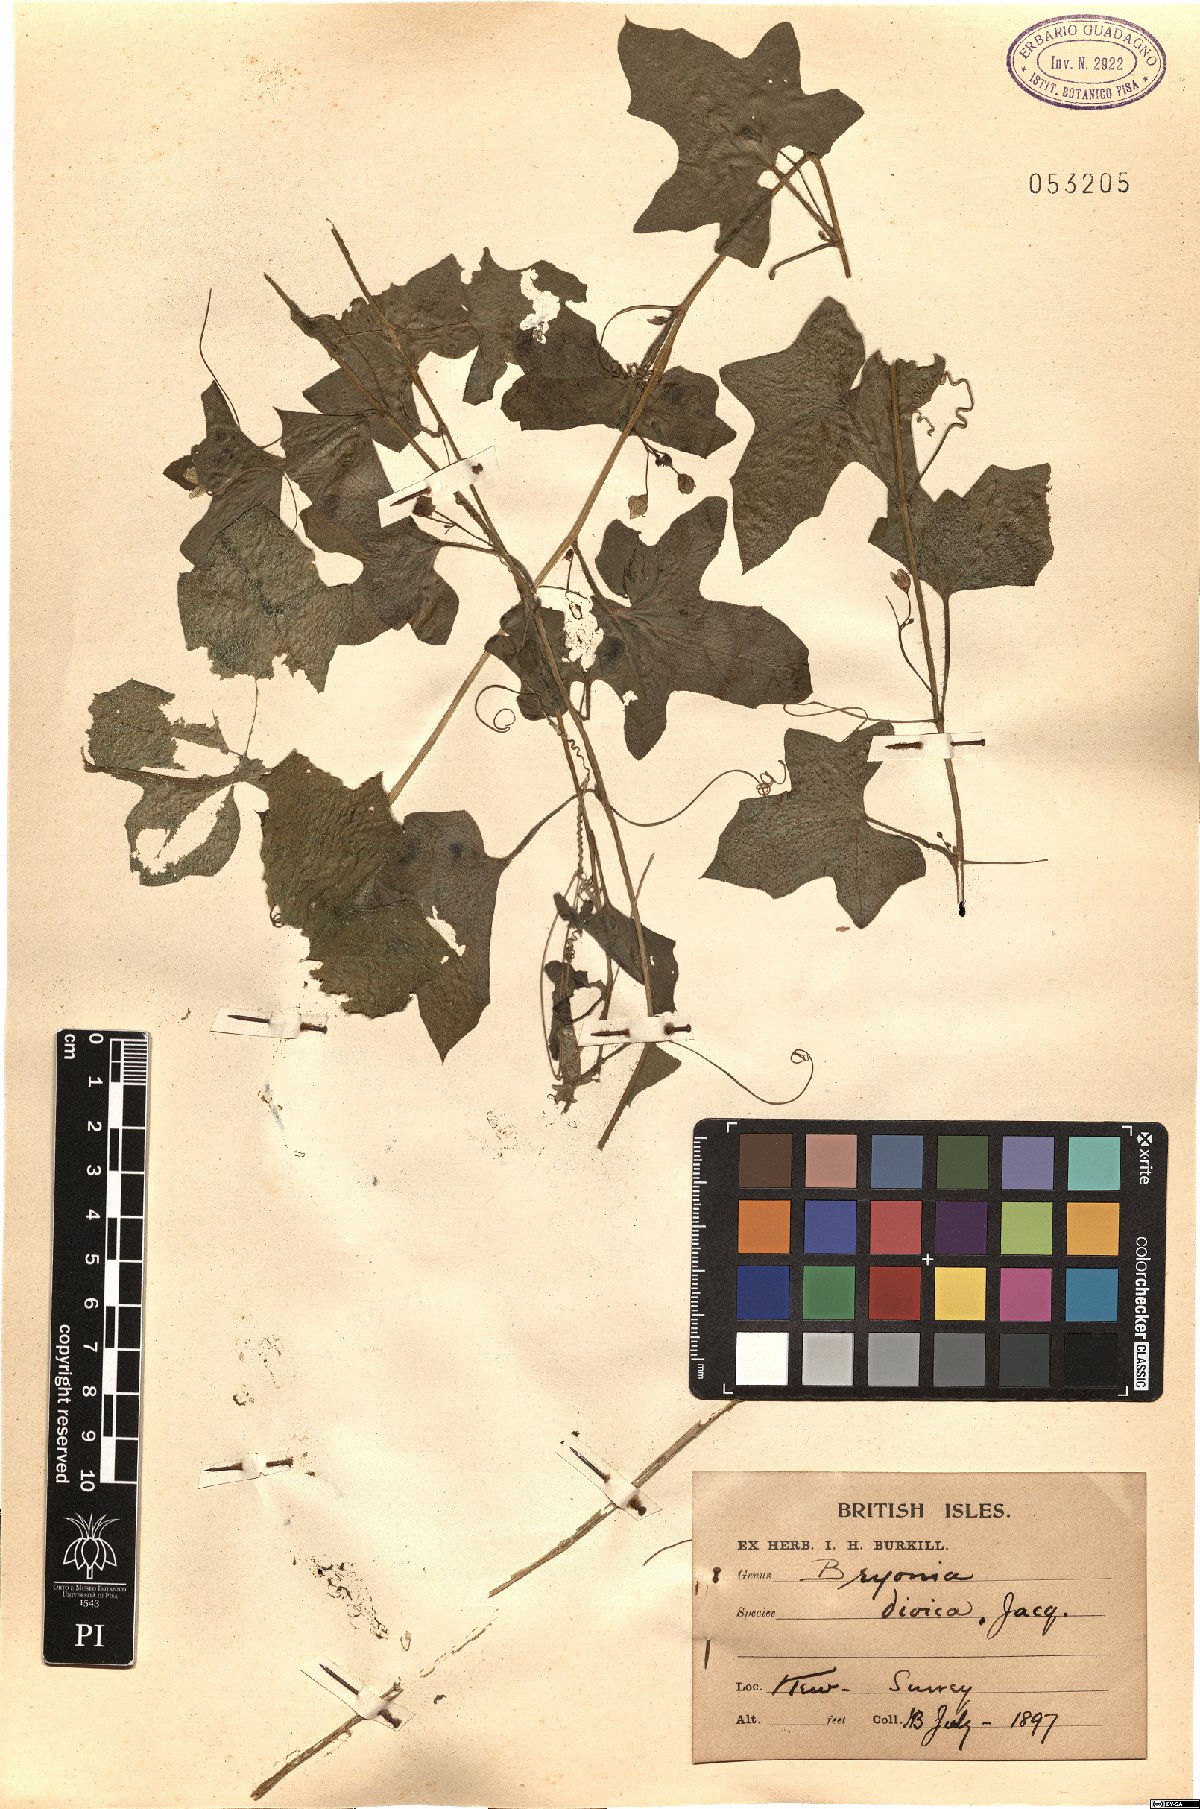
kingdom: Plantae
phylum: Tracheophyta
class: Magnoliopsida
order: Cucurbitales
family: Cucurbitaceae
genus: Bryonia
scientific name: Bryonia dioica
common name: White bryony
